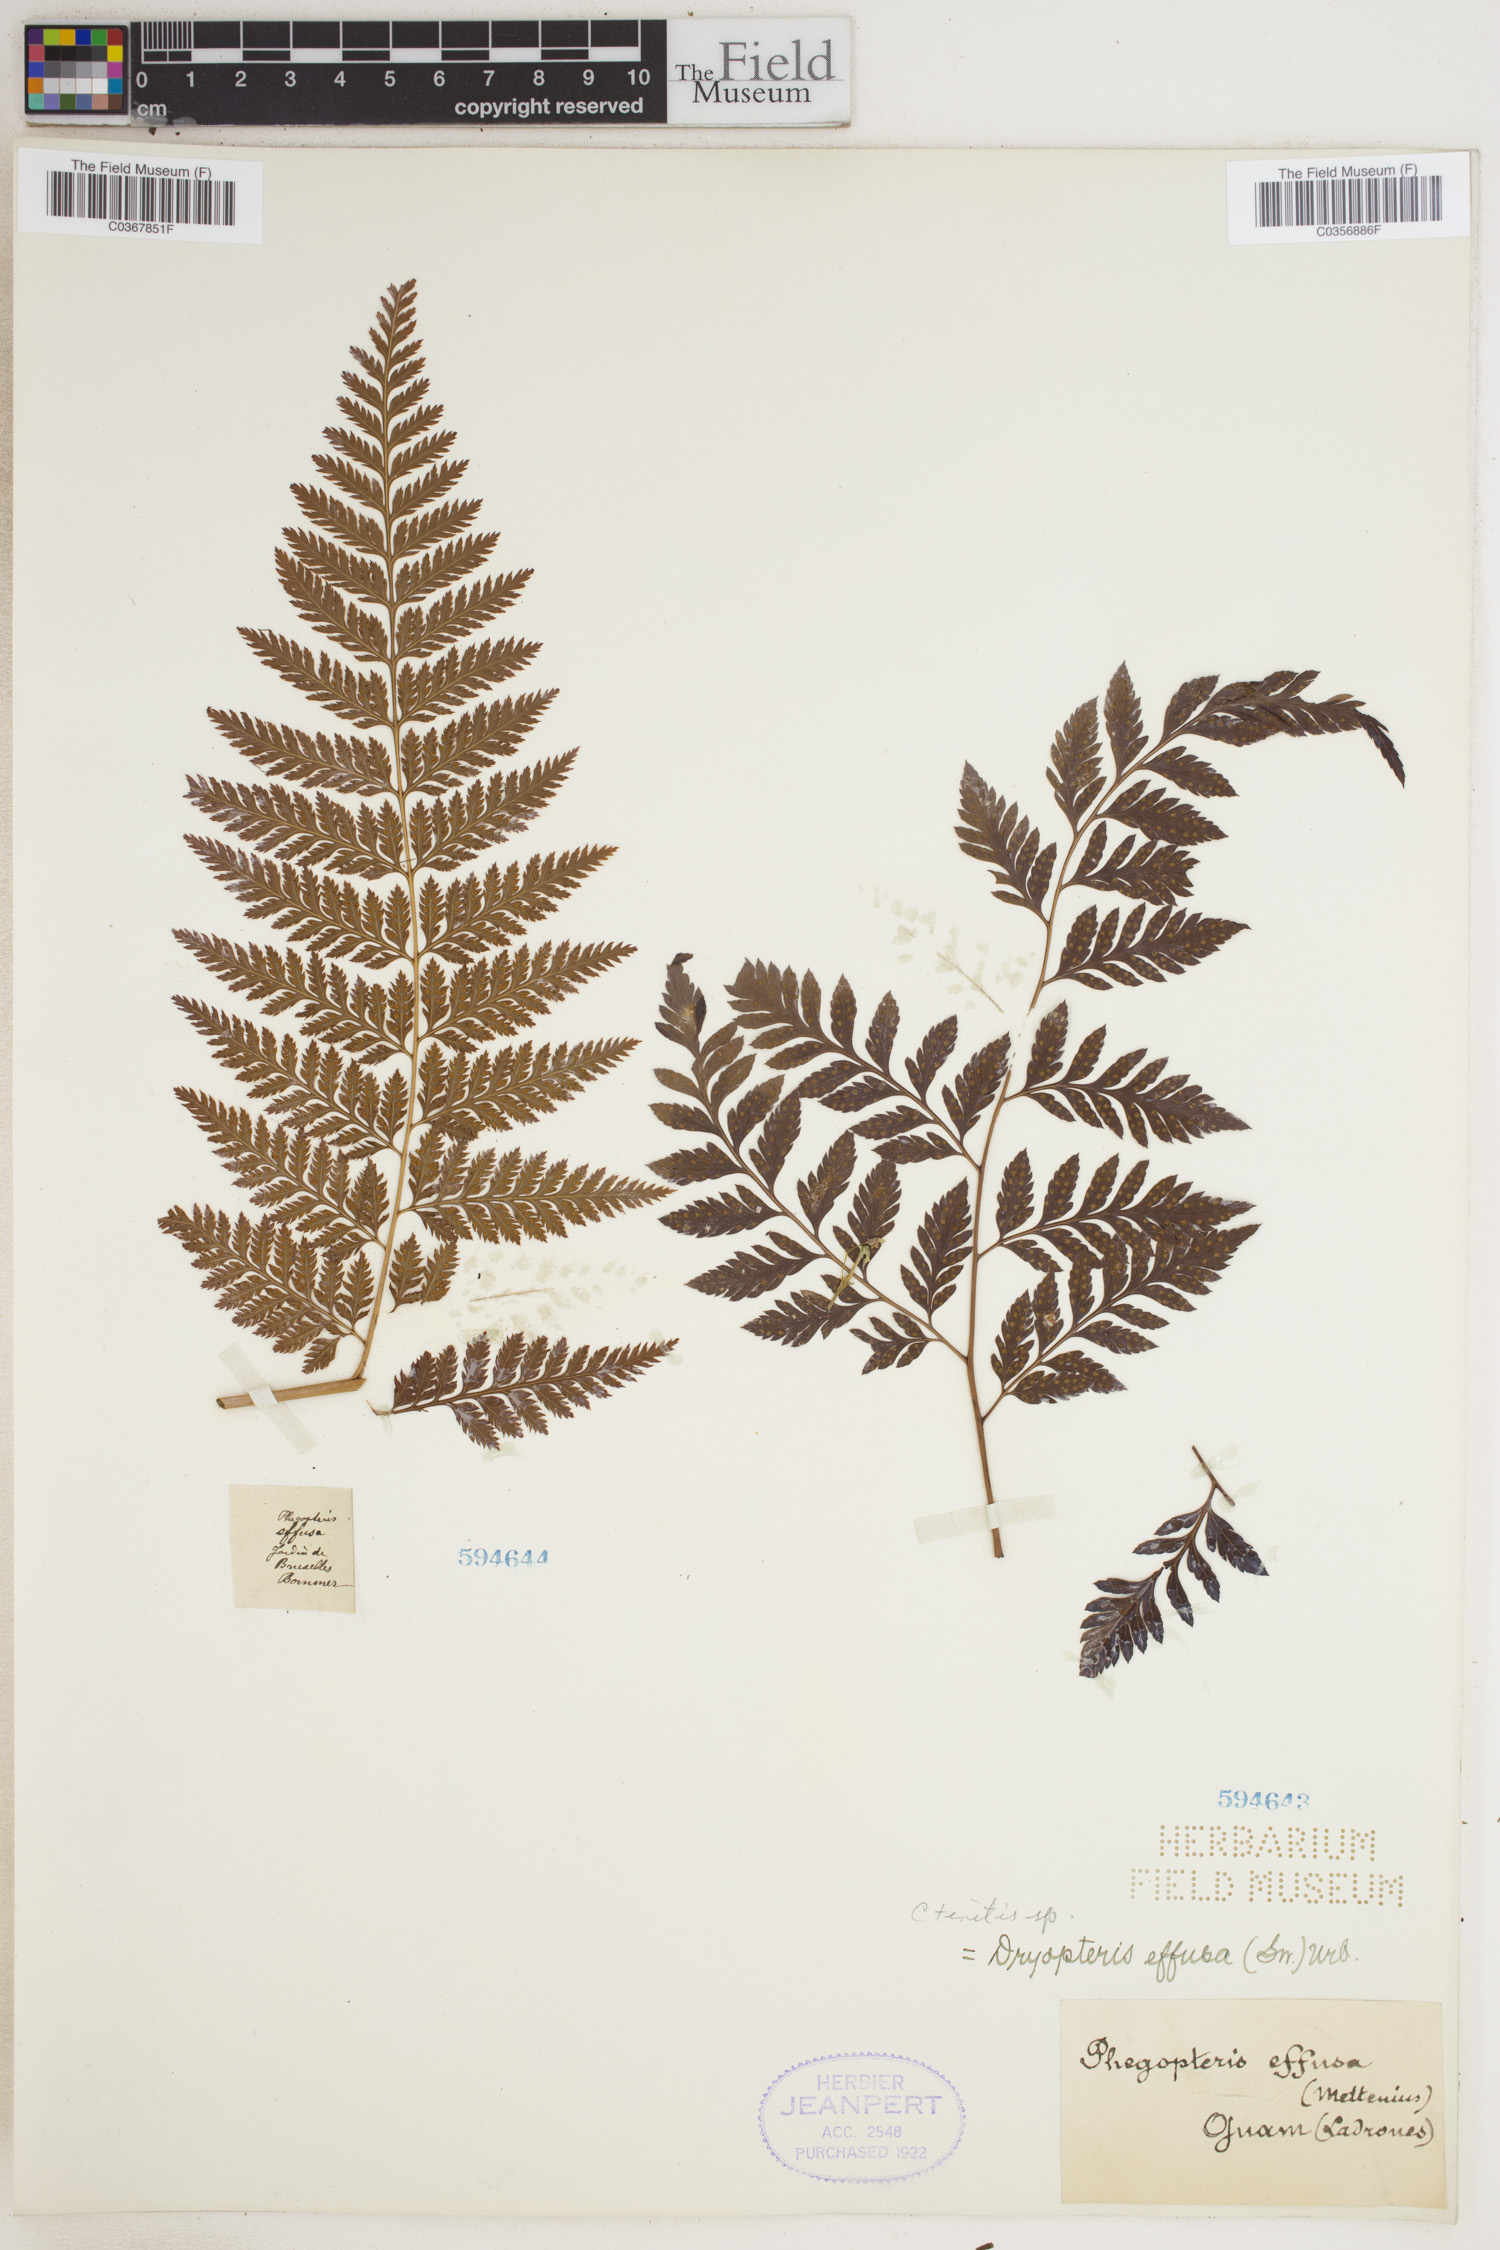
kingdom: Plantae
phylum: Tracheophyta
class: Polypodiopsida
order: Polypodiales
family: Dryopteridaceae
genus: Parapolystichum
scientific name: Parapolystichum effusum
